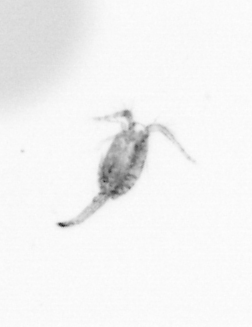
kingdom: Animalia
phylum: Arthropoda
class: Copepoda
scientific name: Copepoda
